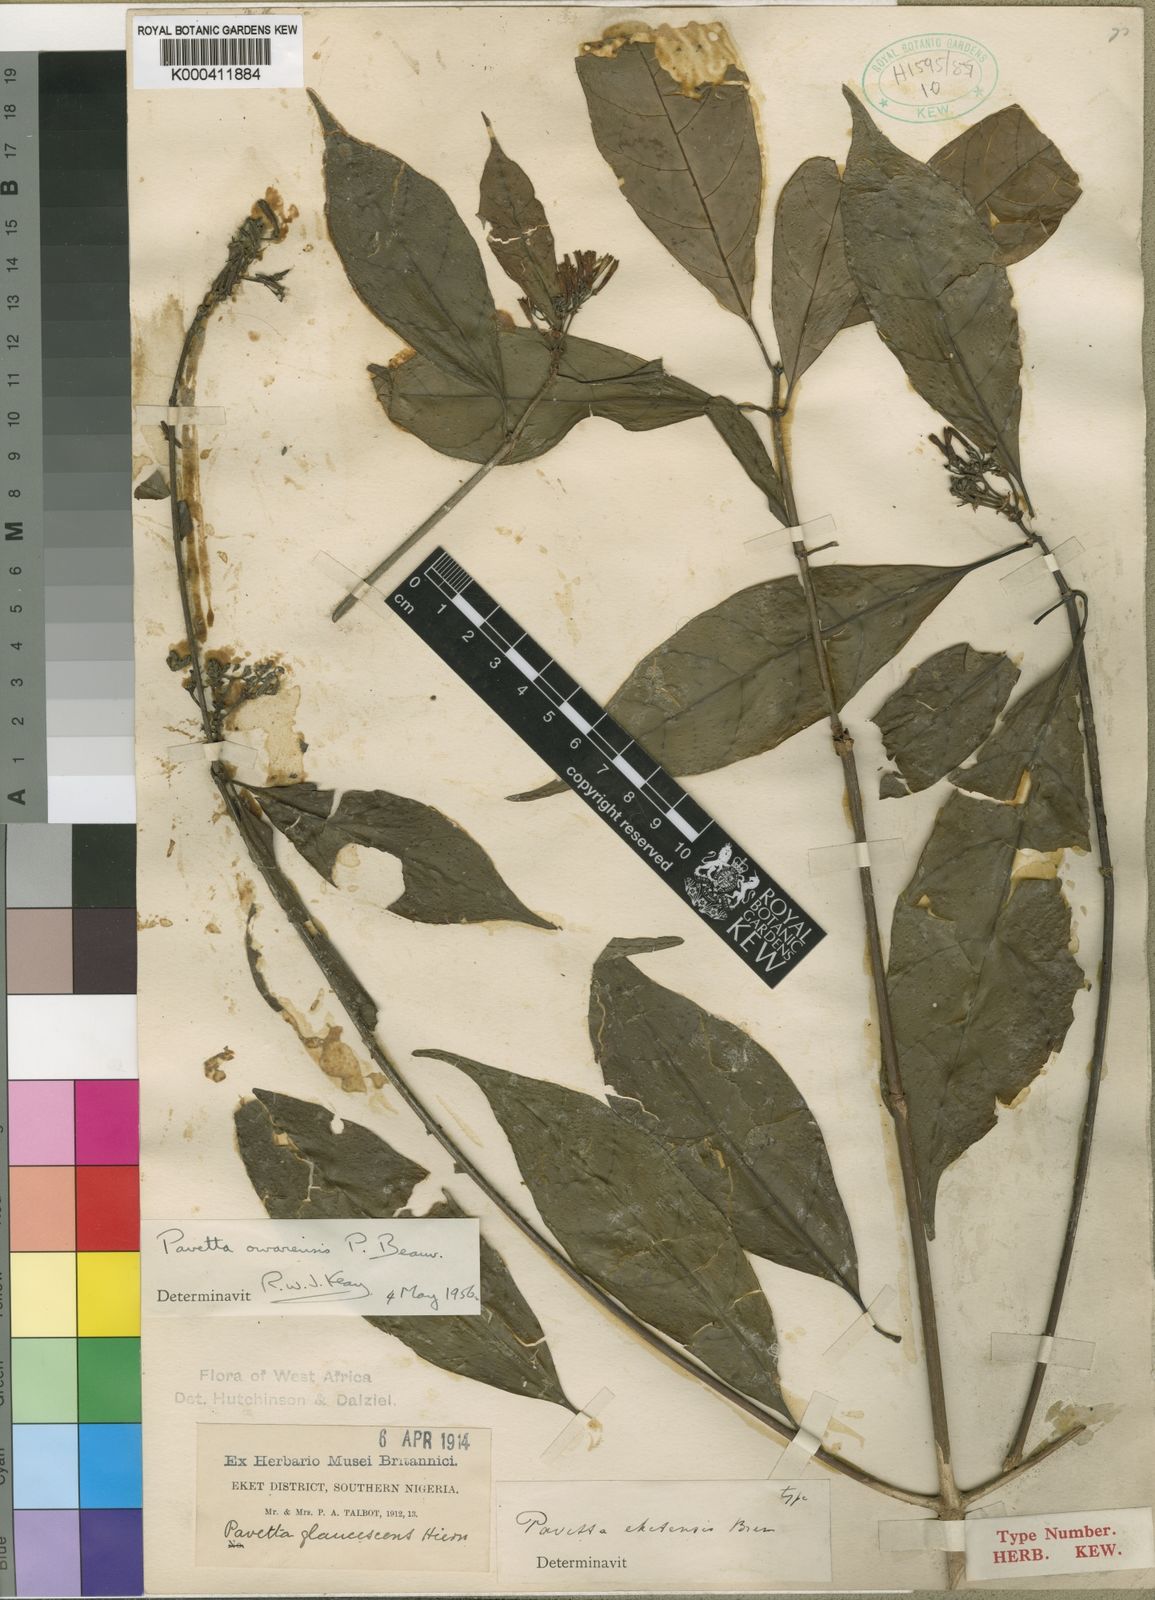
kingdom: Plantae
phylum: Tracheophyta
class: Magnoliopsida
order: Gentianales
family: Rubiaceae
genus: Pavetta
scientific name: Pavetta owariensis
